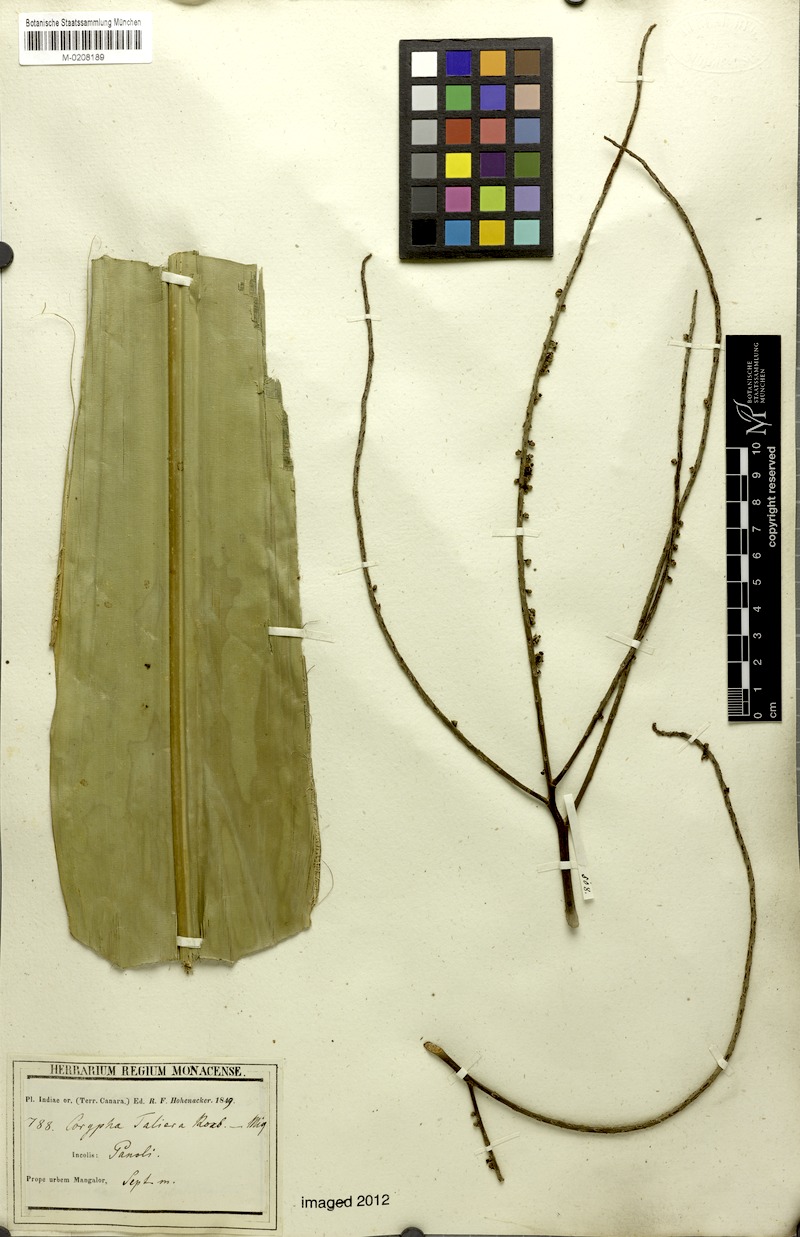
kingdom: Plantae
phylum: Tracheophyta
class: Liliopsida
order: Arecales
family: Arecaceae
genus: Corypha
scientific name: Corypha taliera
